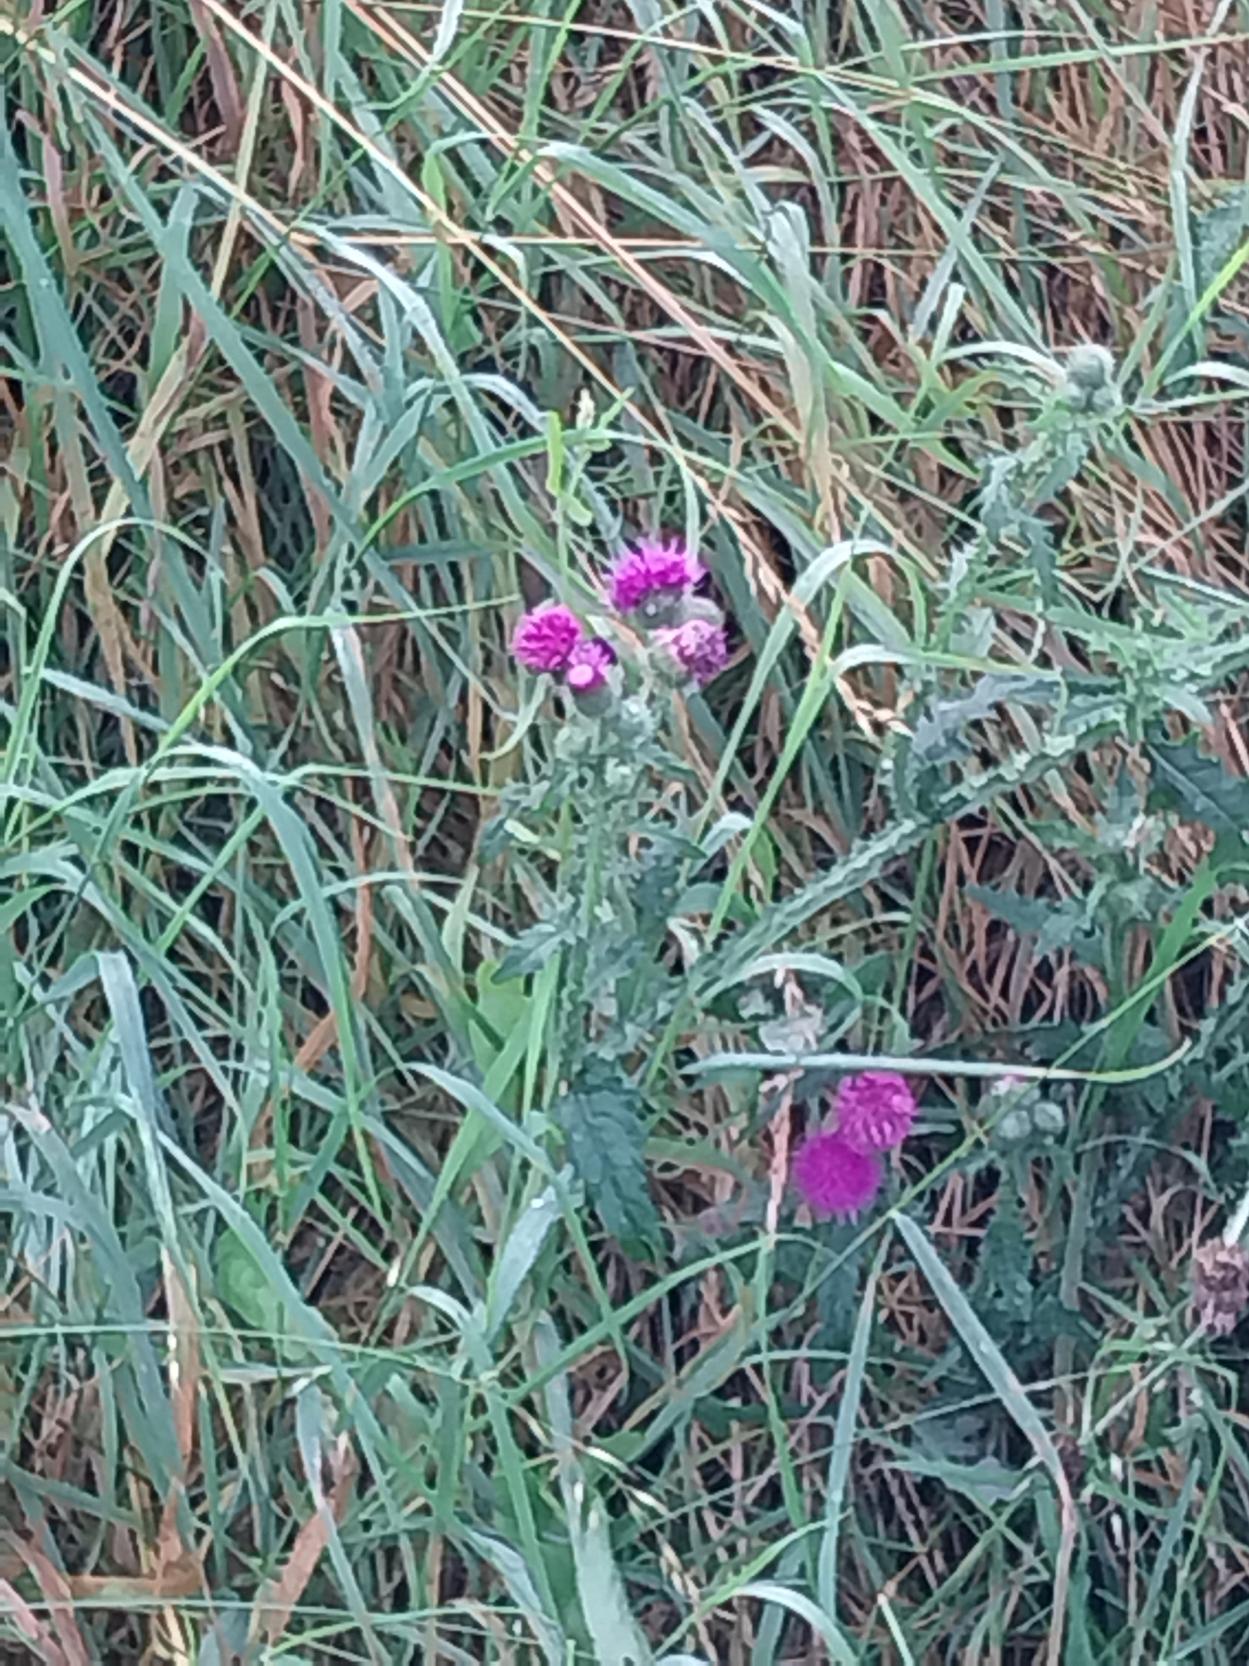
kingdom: Plantae
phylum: Tracheophyta
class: Magnoliopsida
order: Asterales
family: Asteraceae
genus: Carduus
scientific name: Carduus crispus
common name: Kruset tidsel
